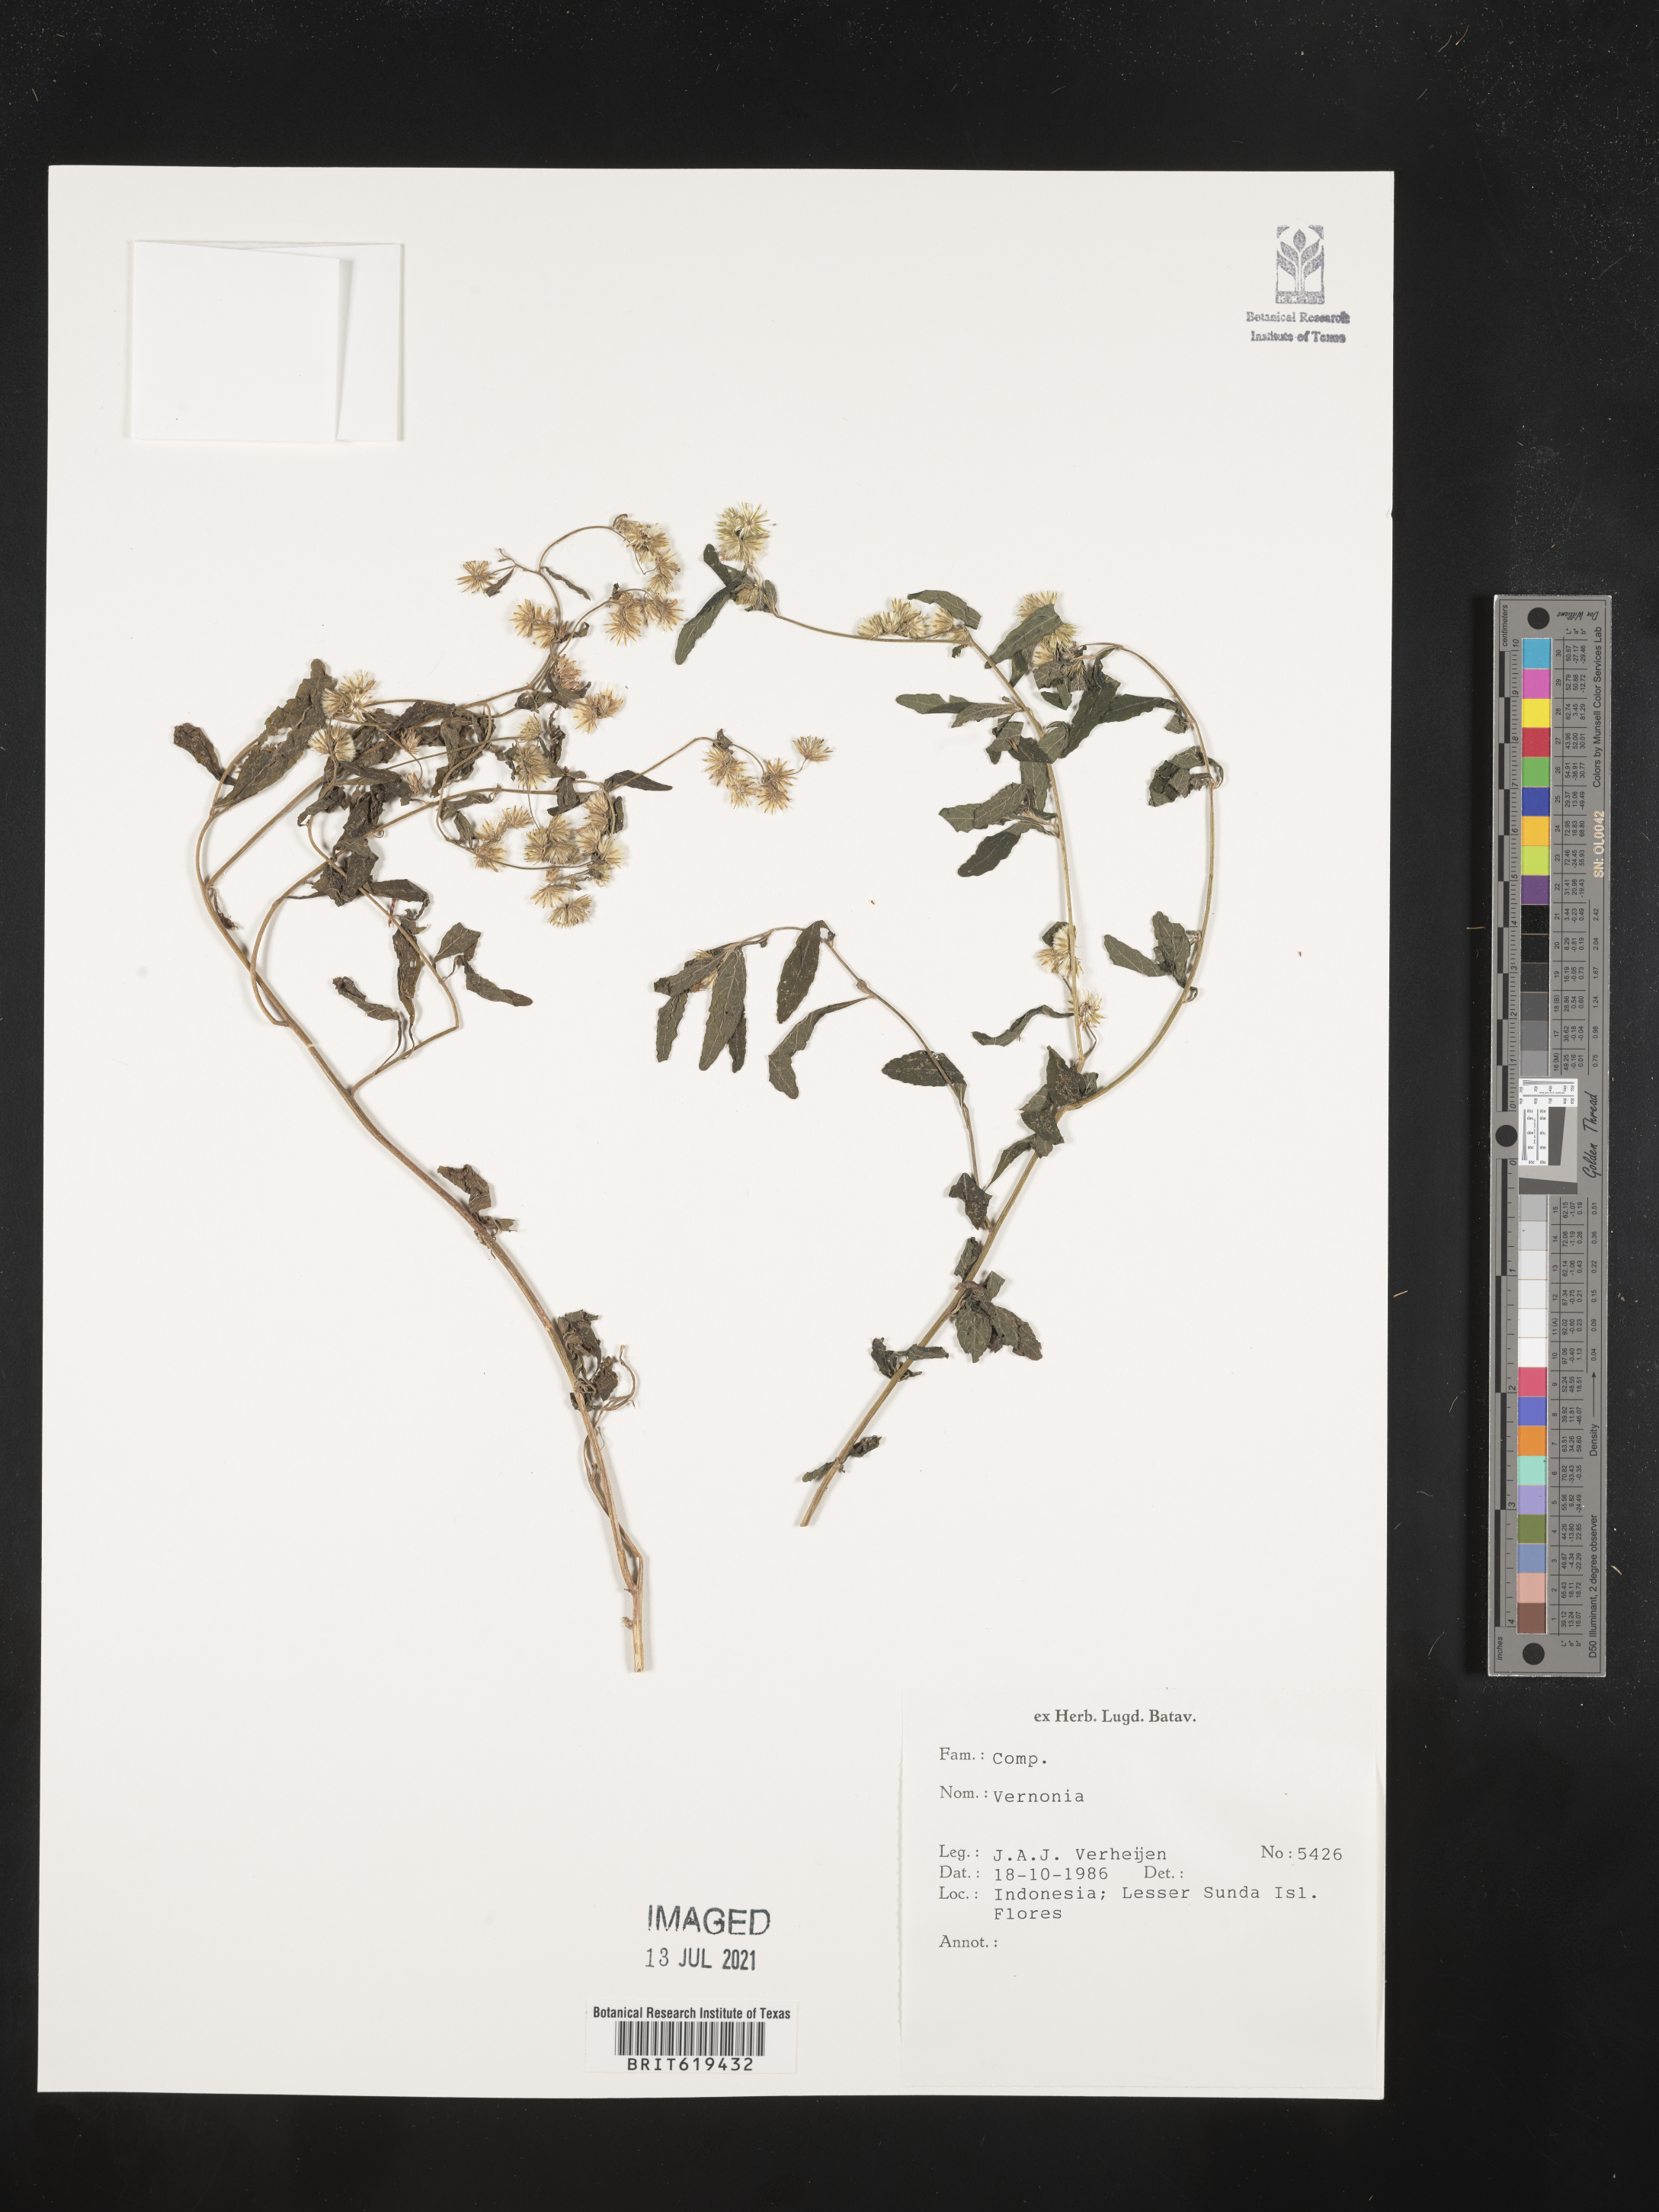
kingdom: Plantae
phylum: Tracheophyta
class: Magnoliopsida
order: Asterales
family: Asteraceae
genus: Vernonia
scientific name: Vernonia
